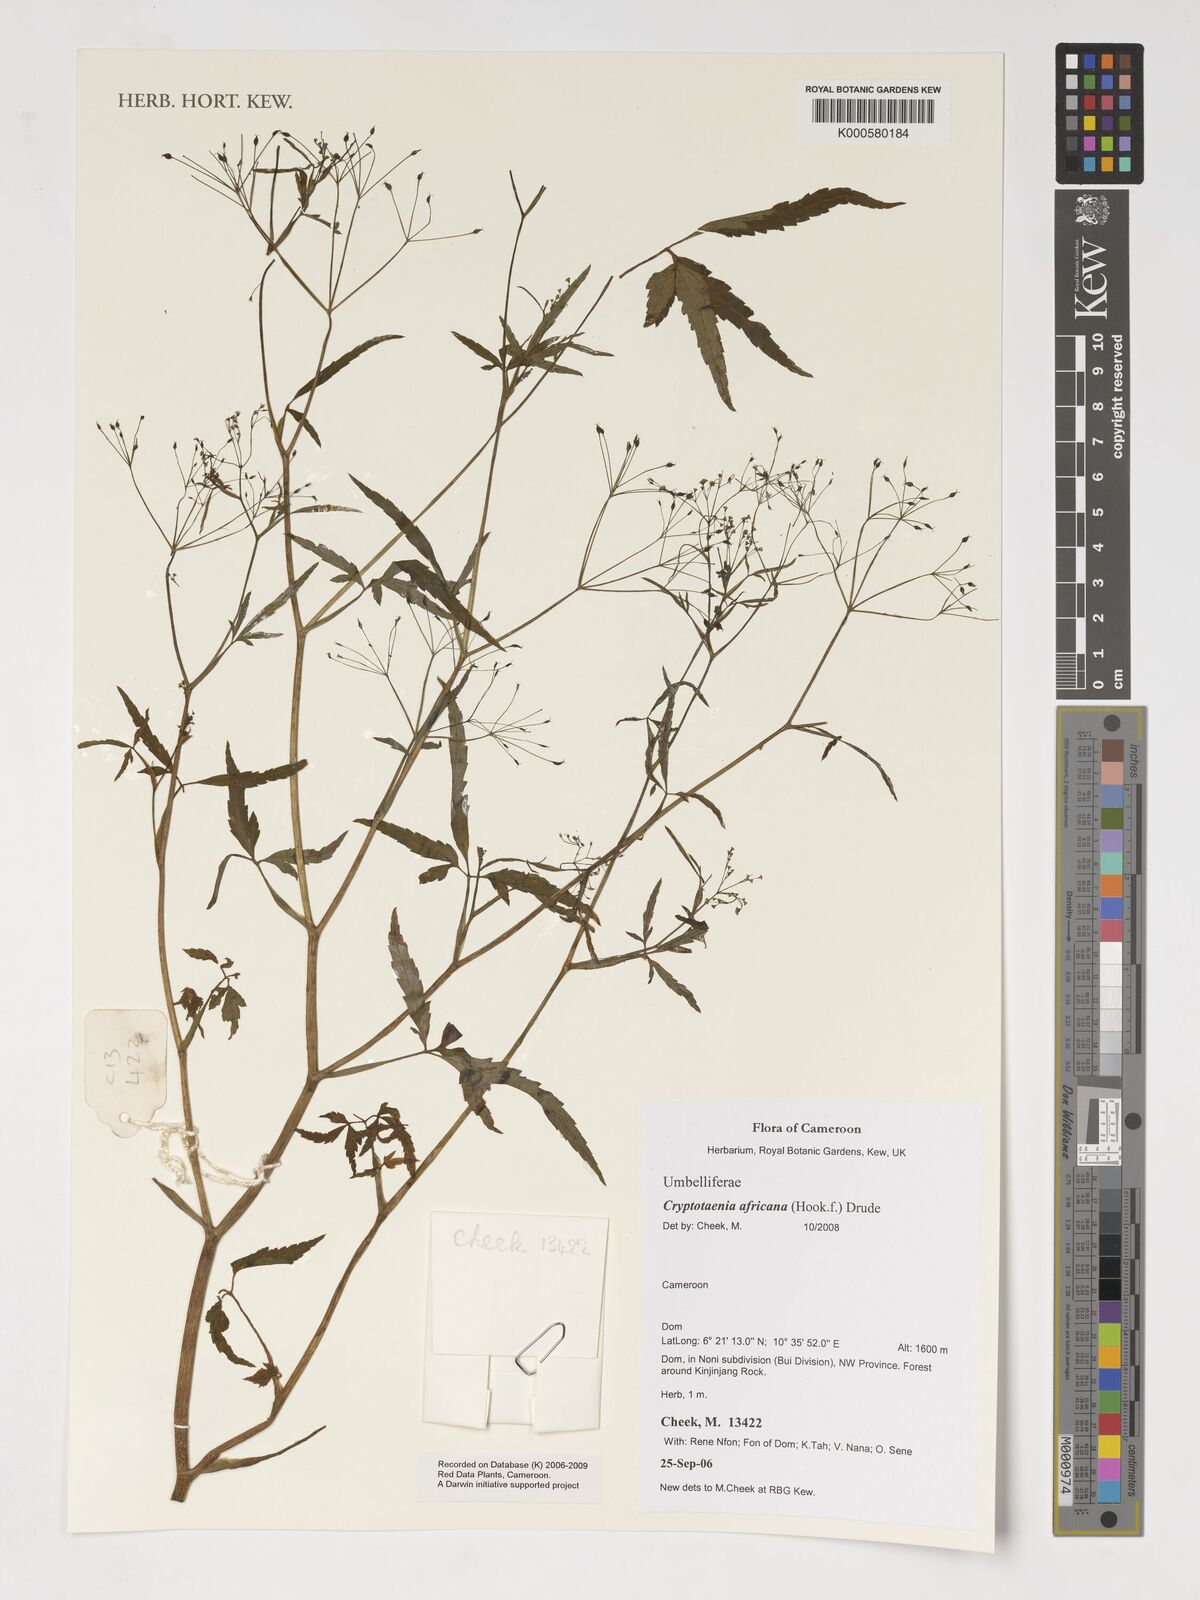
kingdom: Plantae
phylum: Tracheophyta
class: Magnoliopsida
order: Apiales
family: Apiaceae
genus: Cryptotaenia
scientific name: Cryptotaenia africana
